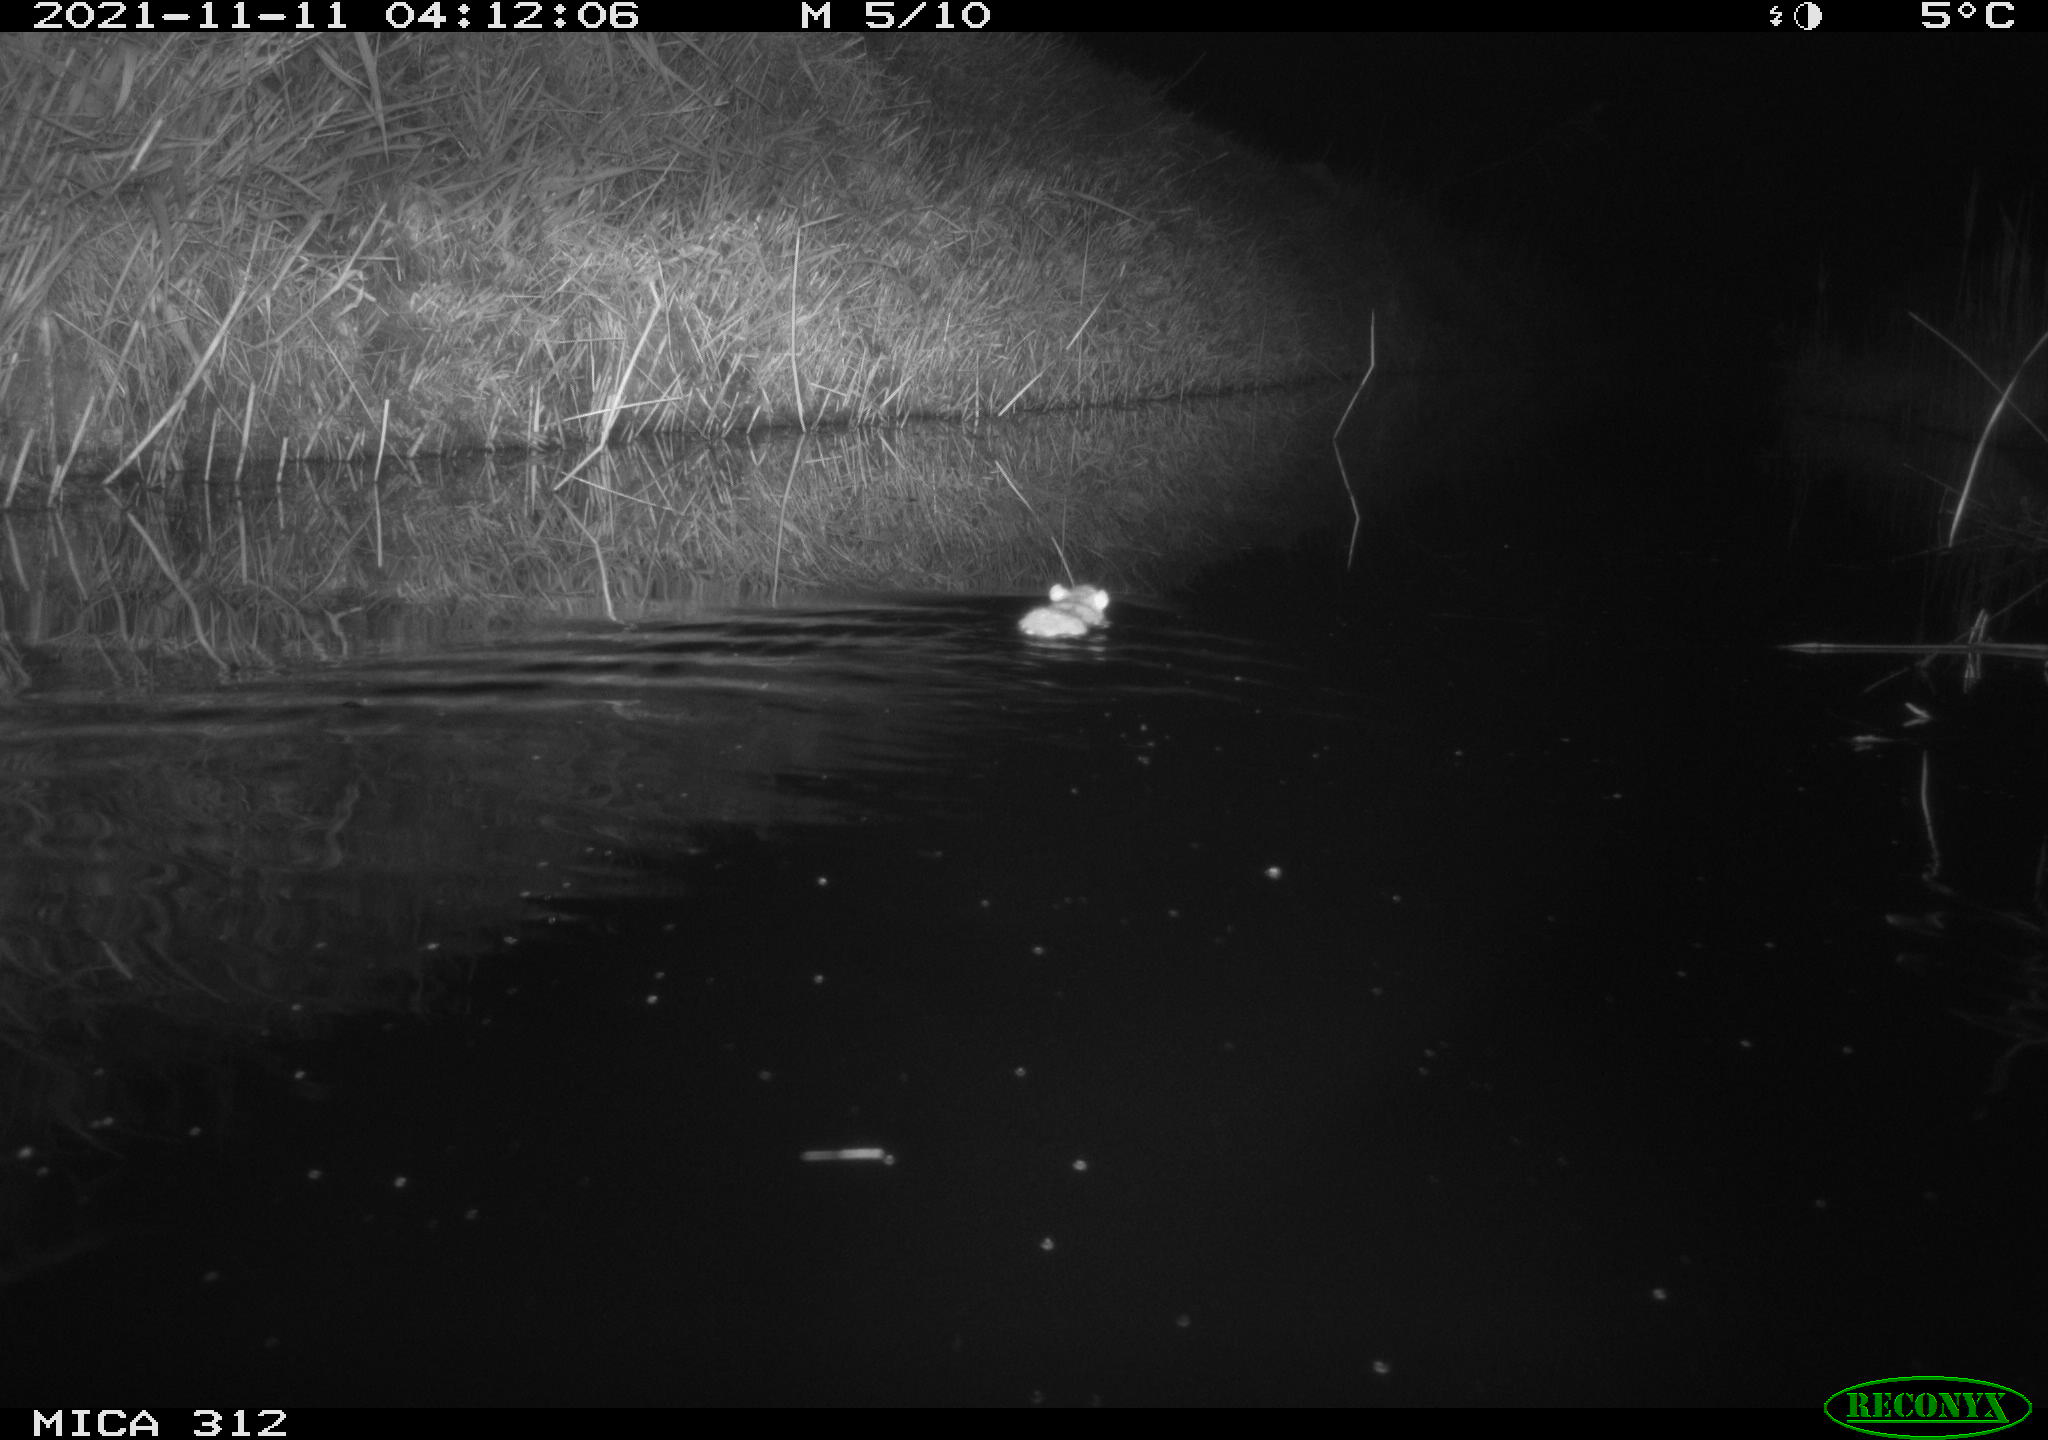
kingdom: Animalia
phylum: Chordata
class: Mammalia
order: Rodentia
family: Muridae
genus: Rattus
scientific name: Rattus norvegicus
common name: Brown rat
